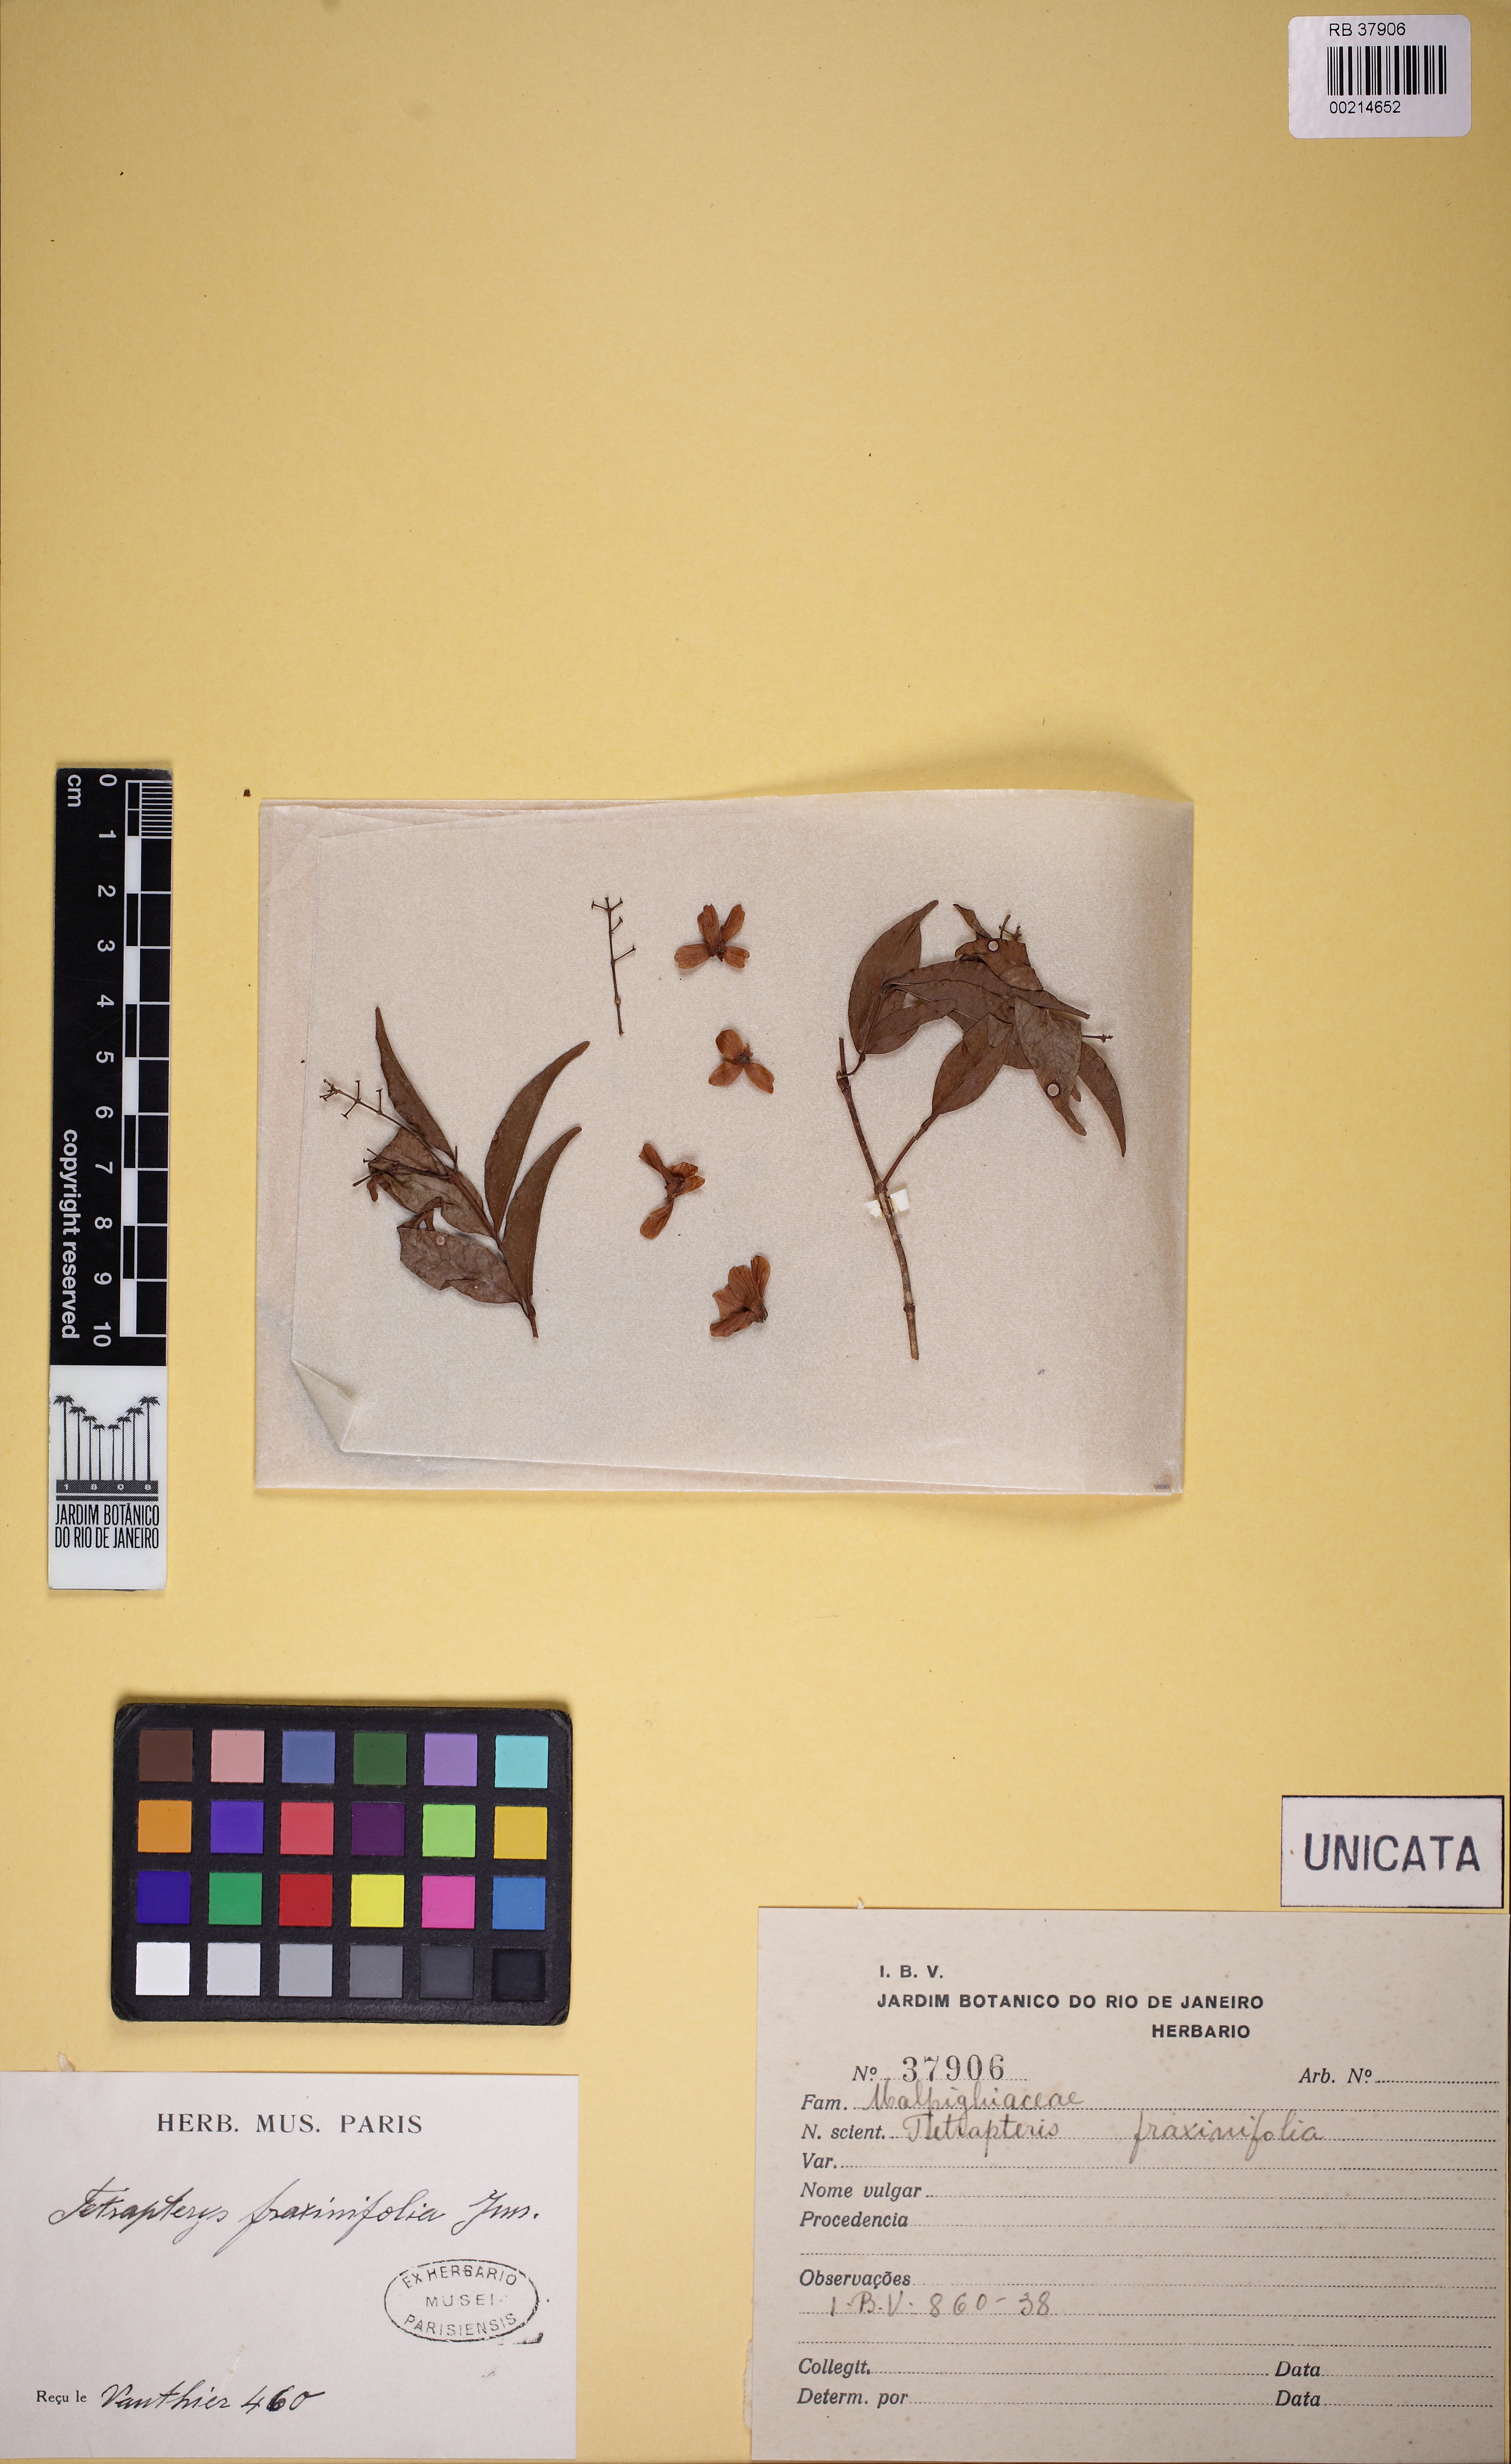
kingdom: Plantae
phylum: Tracheophyta
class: Magnoliopsida
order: Malpighiales
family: Malpighiaceae
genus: Niedenzuella
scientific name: Niedenzuella acutifolia
